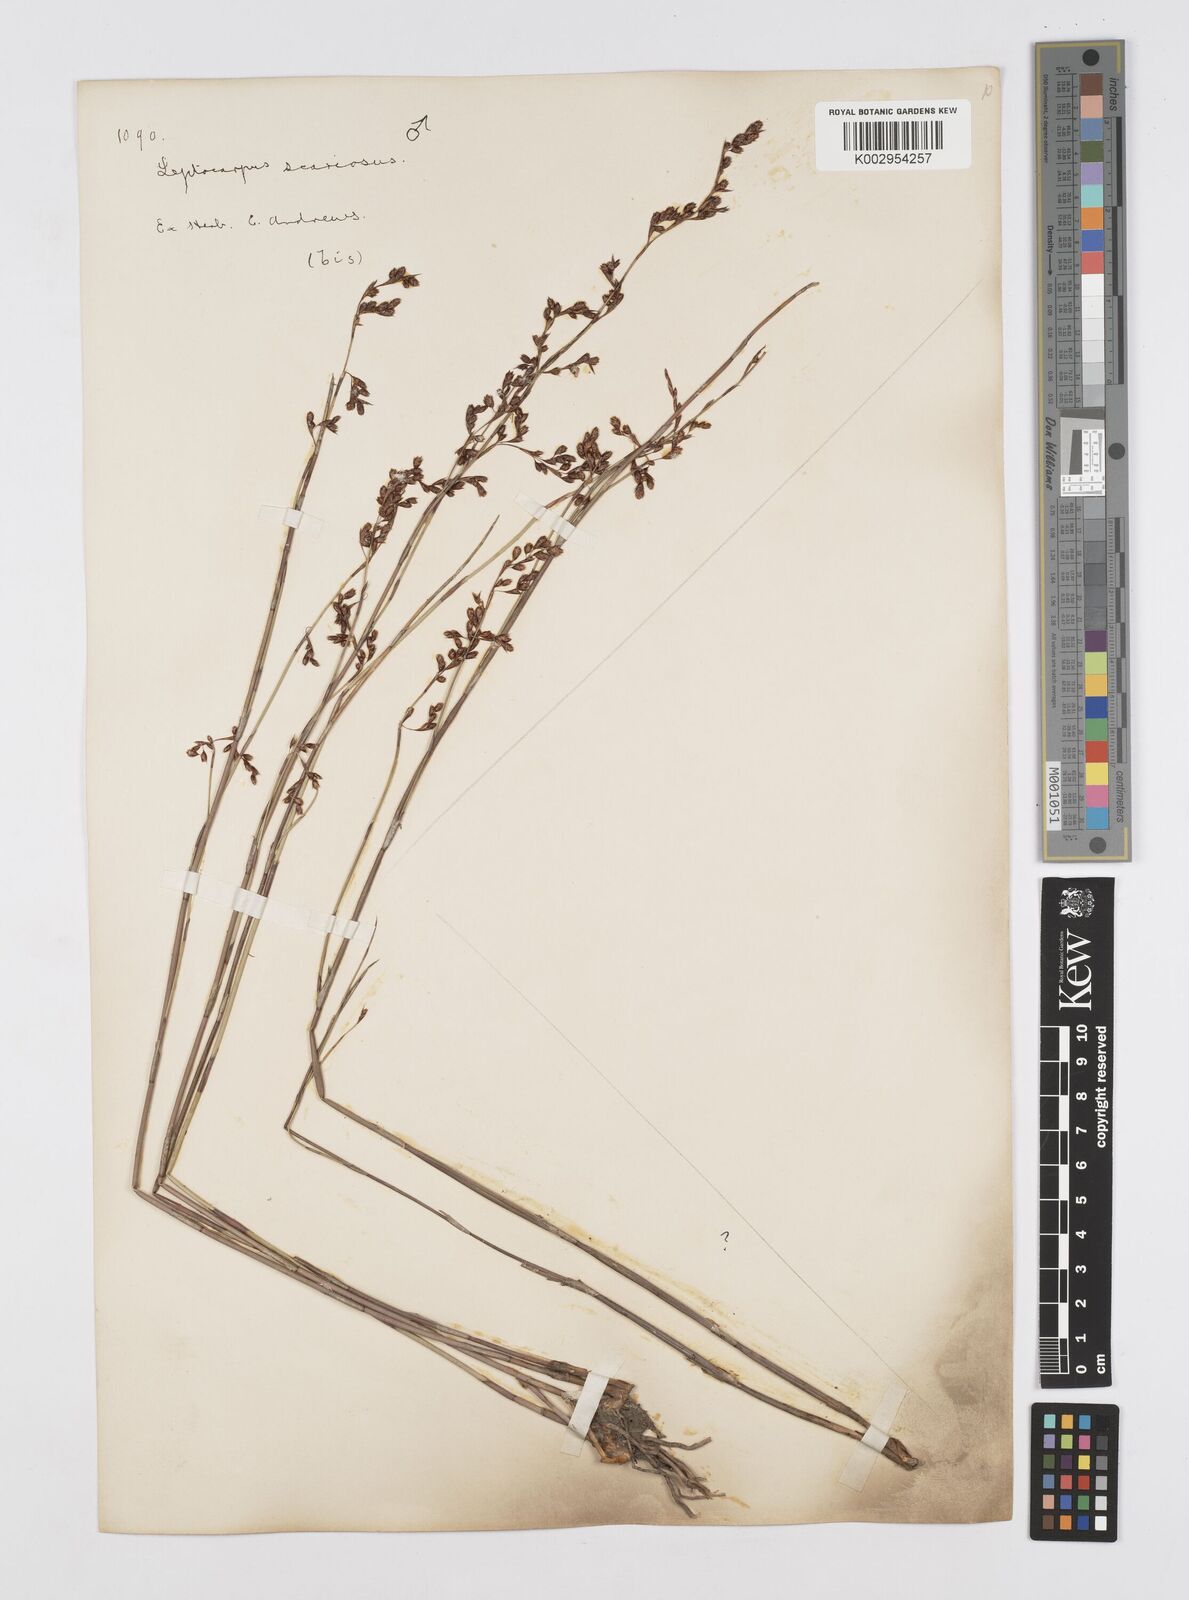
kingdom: Plantae
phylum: Tracheophyta
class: Liliopsida
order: Poales
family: Restionaceae
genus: Leptocarpus
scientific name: Leptocarpus scariosus
